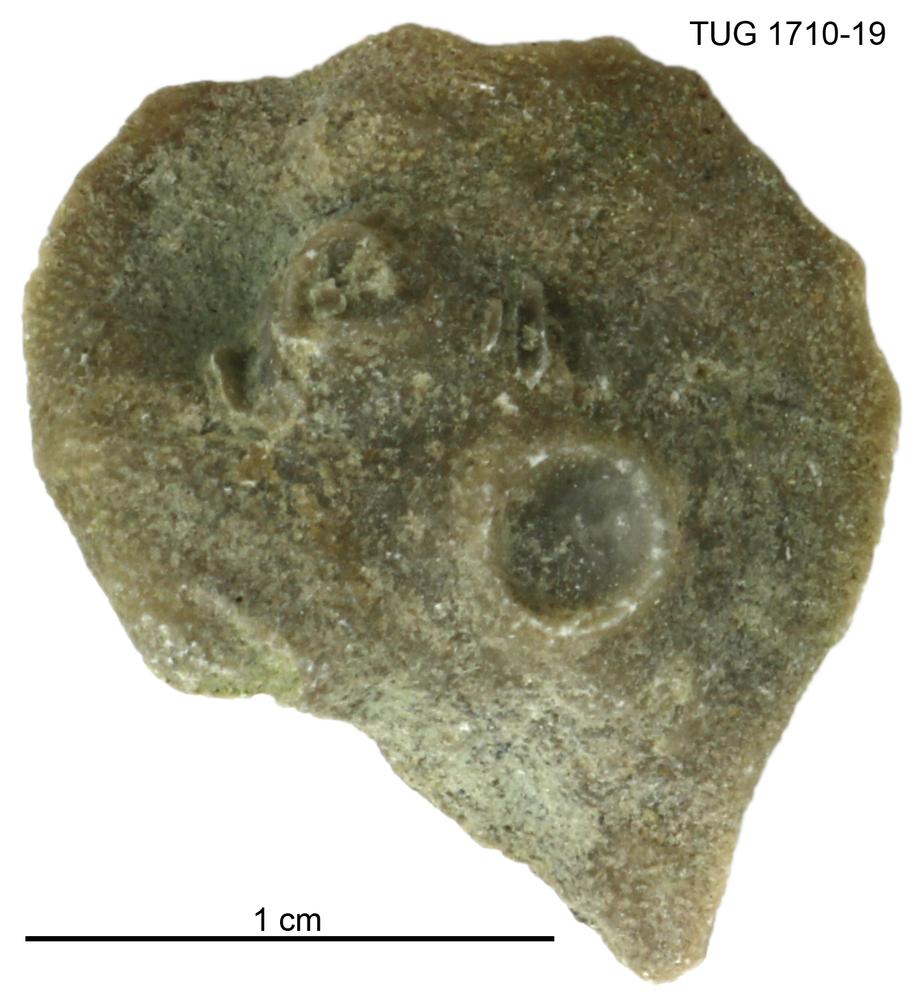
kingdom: Animalia
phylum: Bryozoa
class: Stenolaemata
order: Cystoporida
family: Fistuliporidae
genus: Fistulipora
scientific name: Fistulipora przhidolensis
